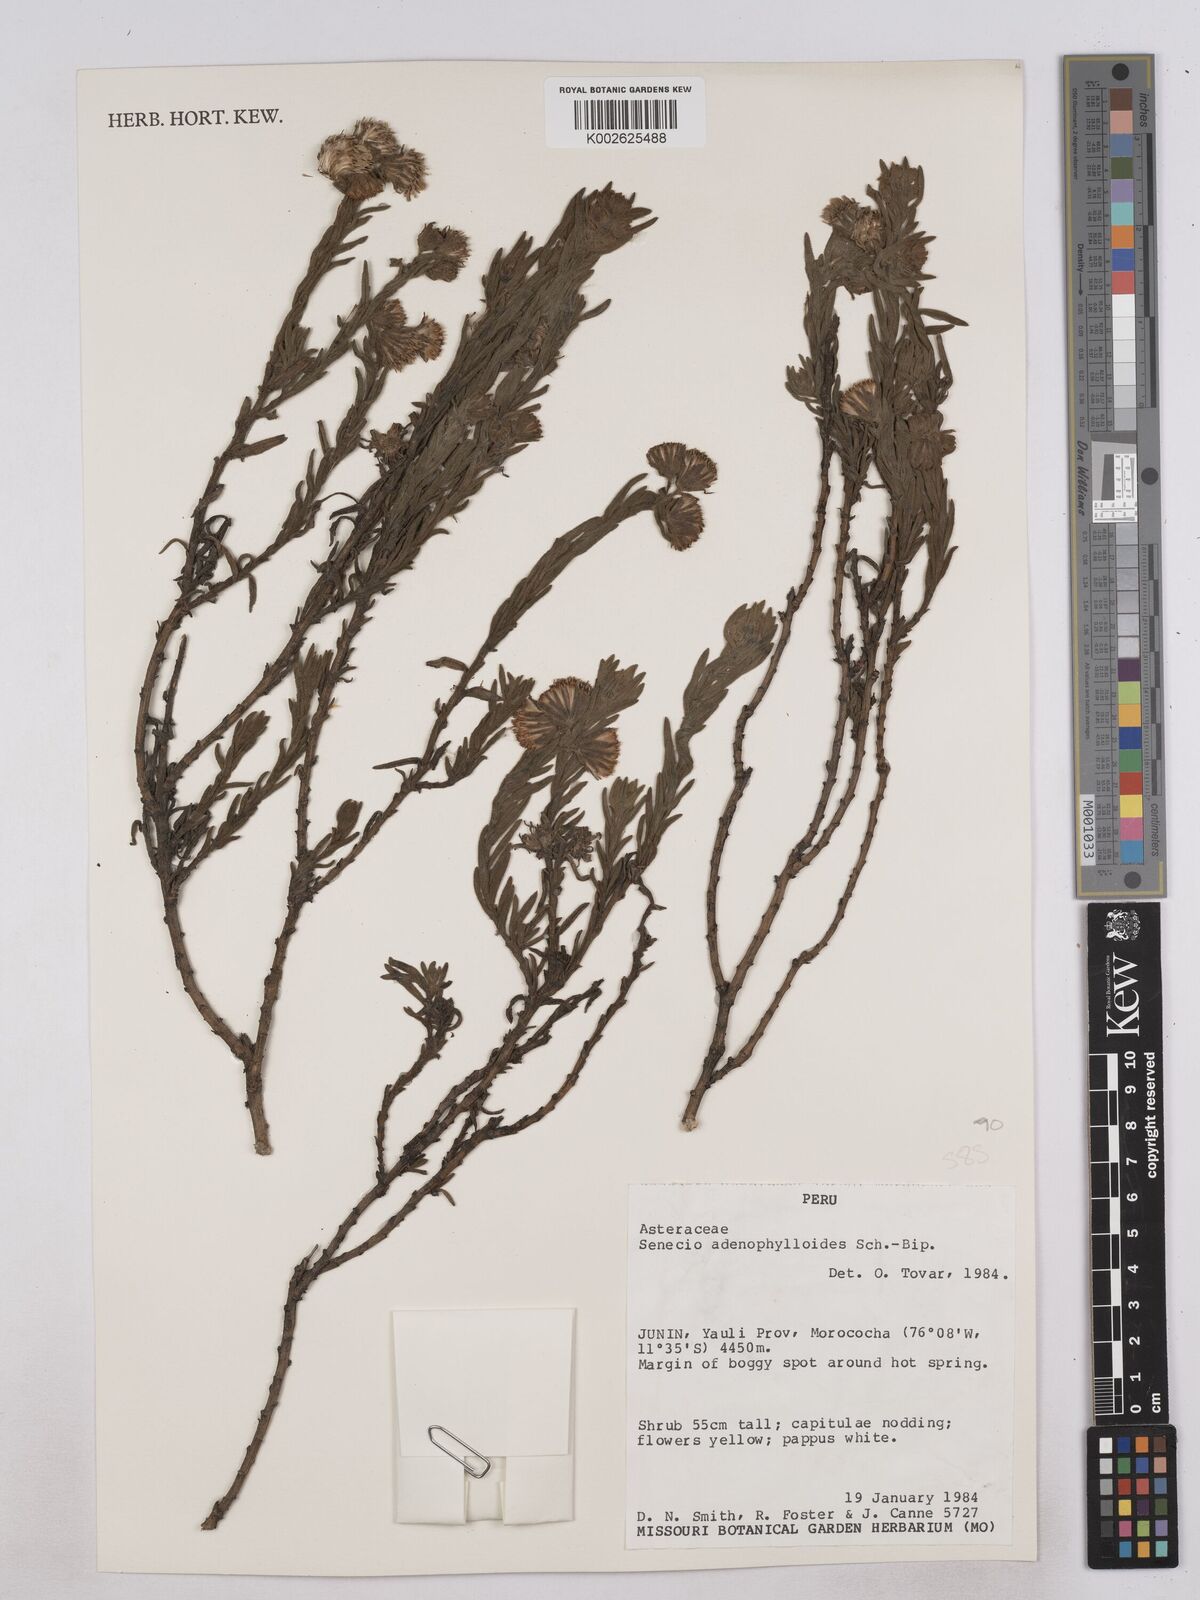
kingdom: Plantae
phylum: Tracheophyta
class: Magnoliopsida
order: Asterales
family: Asteraceae
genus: Senecio
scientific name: Senecio rufescens
